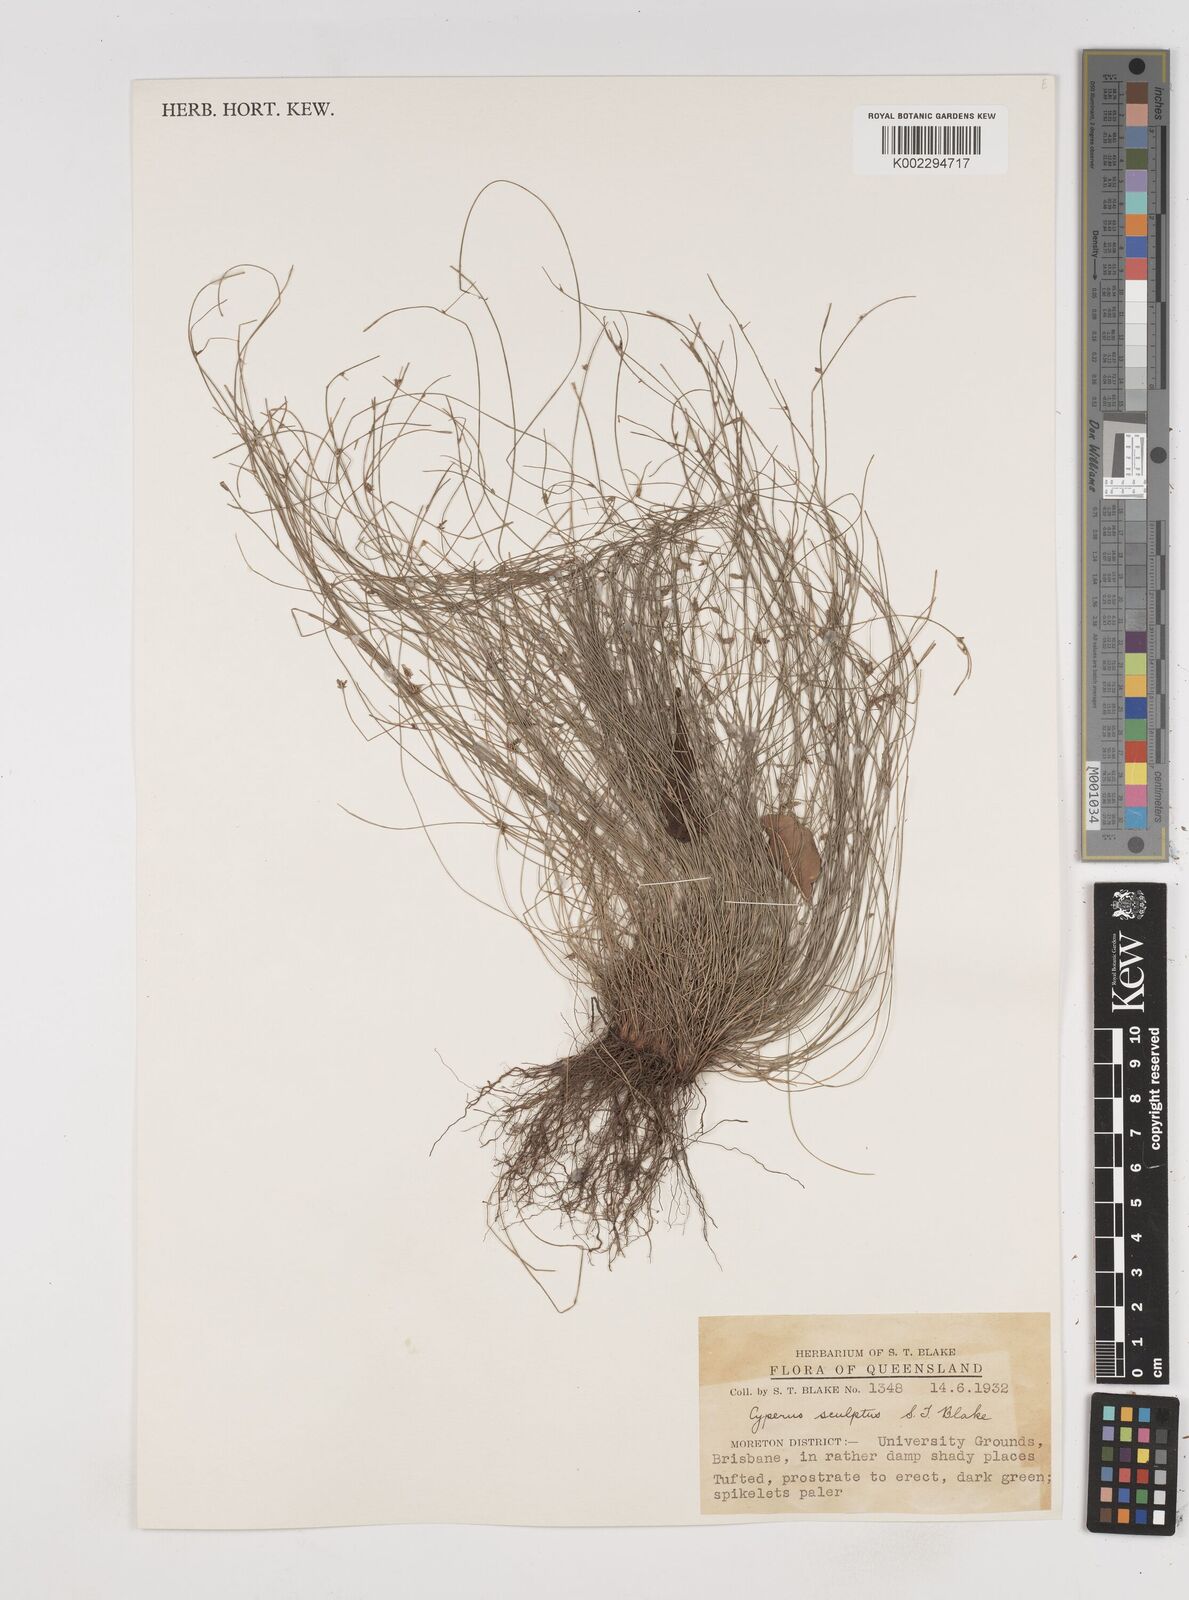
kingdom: Plantae
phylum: Tracheophyta
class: Liliopsida
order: Poales
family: Cyperaceae
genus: Cyperus
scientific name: Cyperus sculptus
